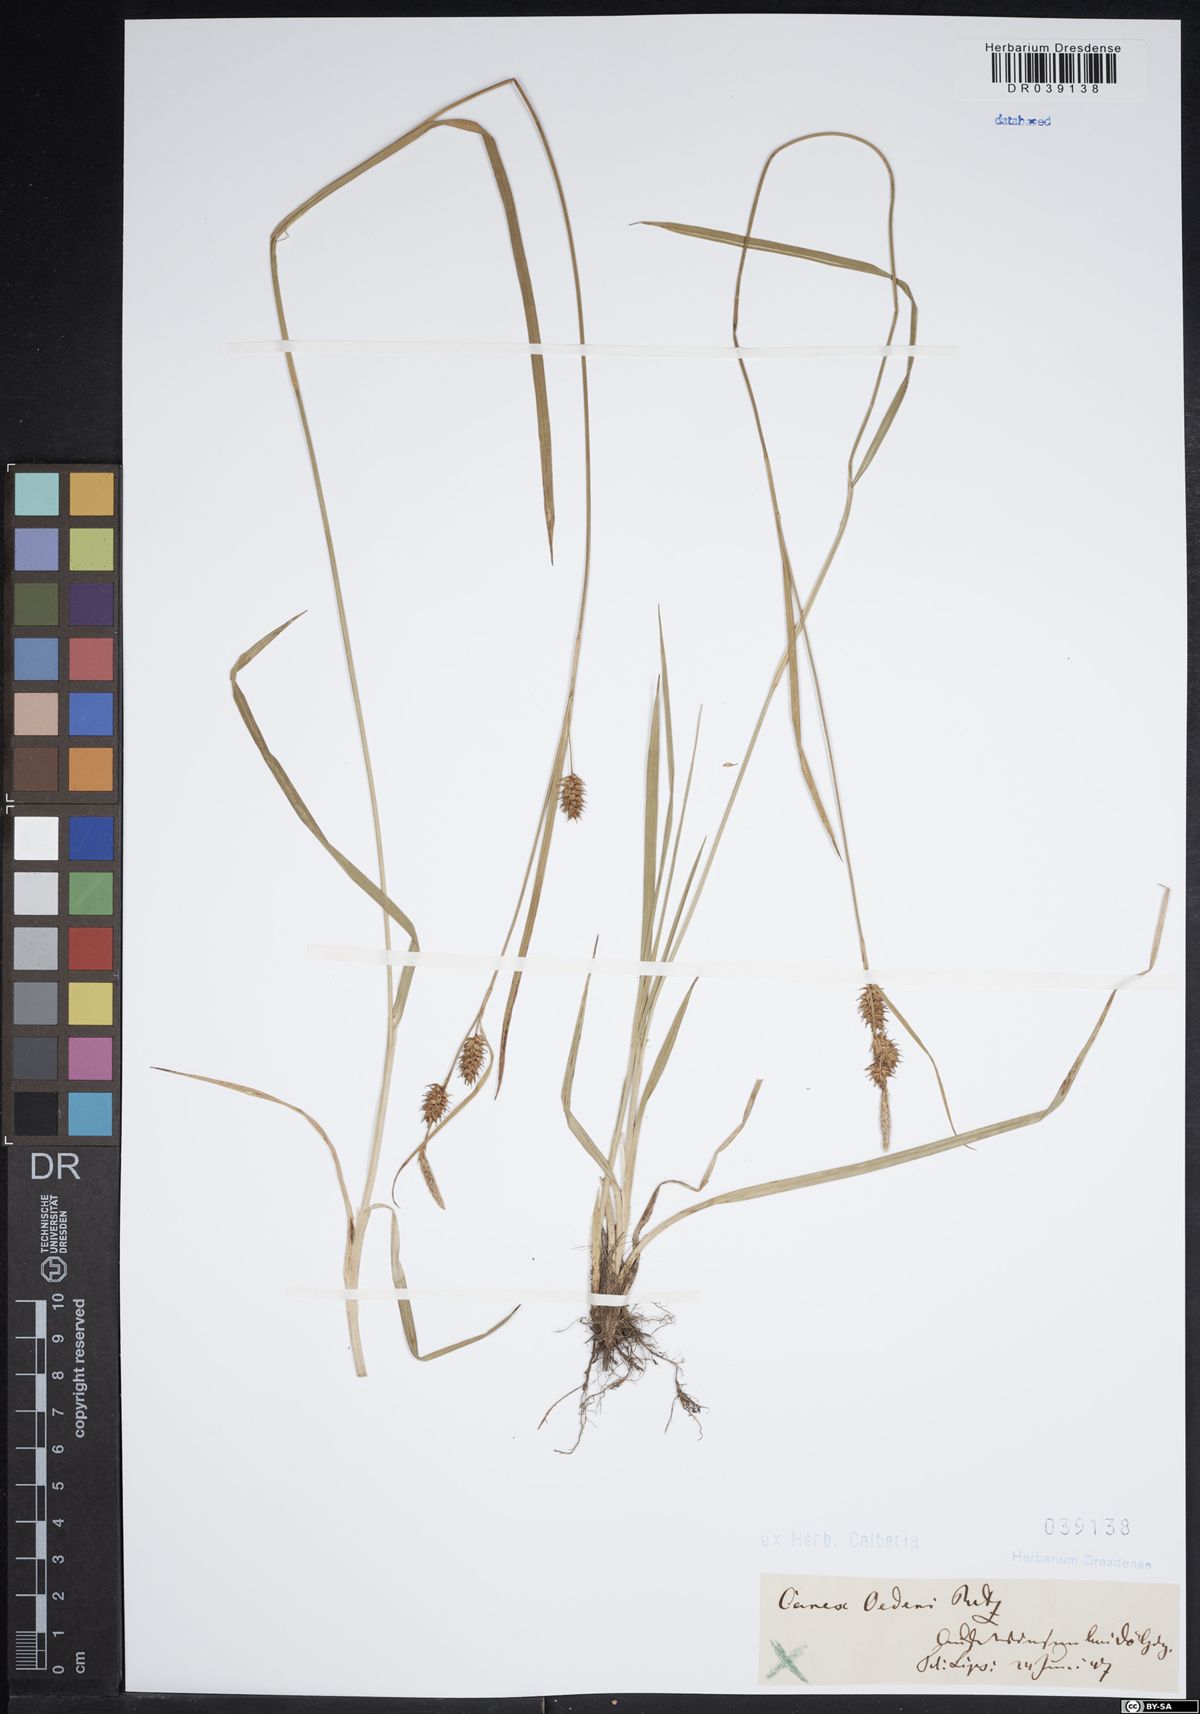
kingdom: Plantae
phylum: Tracheophyta
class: Liliopsida
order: Poales
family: Cyperaceae
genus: Carex
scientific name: Carex oederi
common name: Common & small-fruited yellow-sedge
